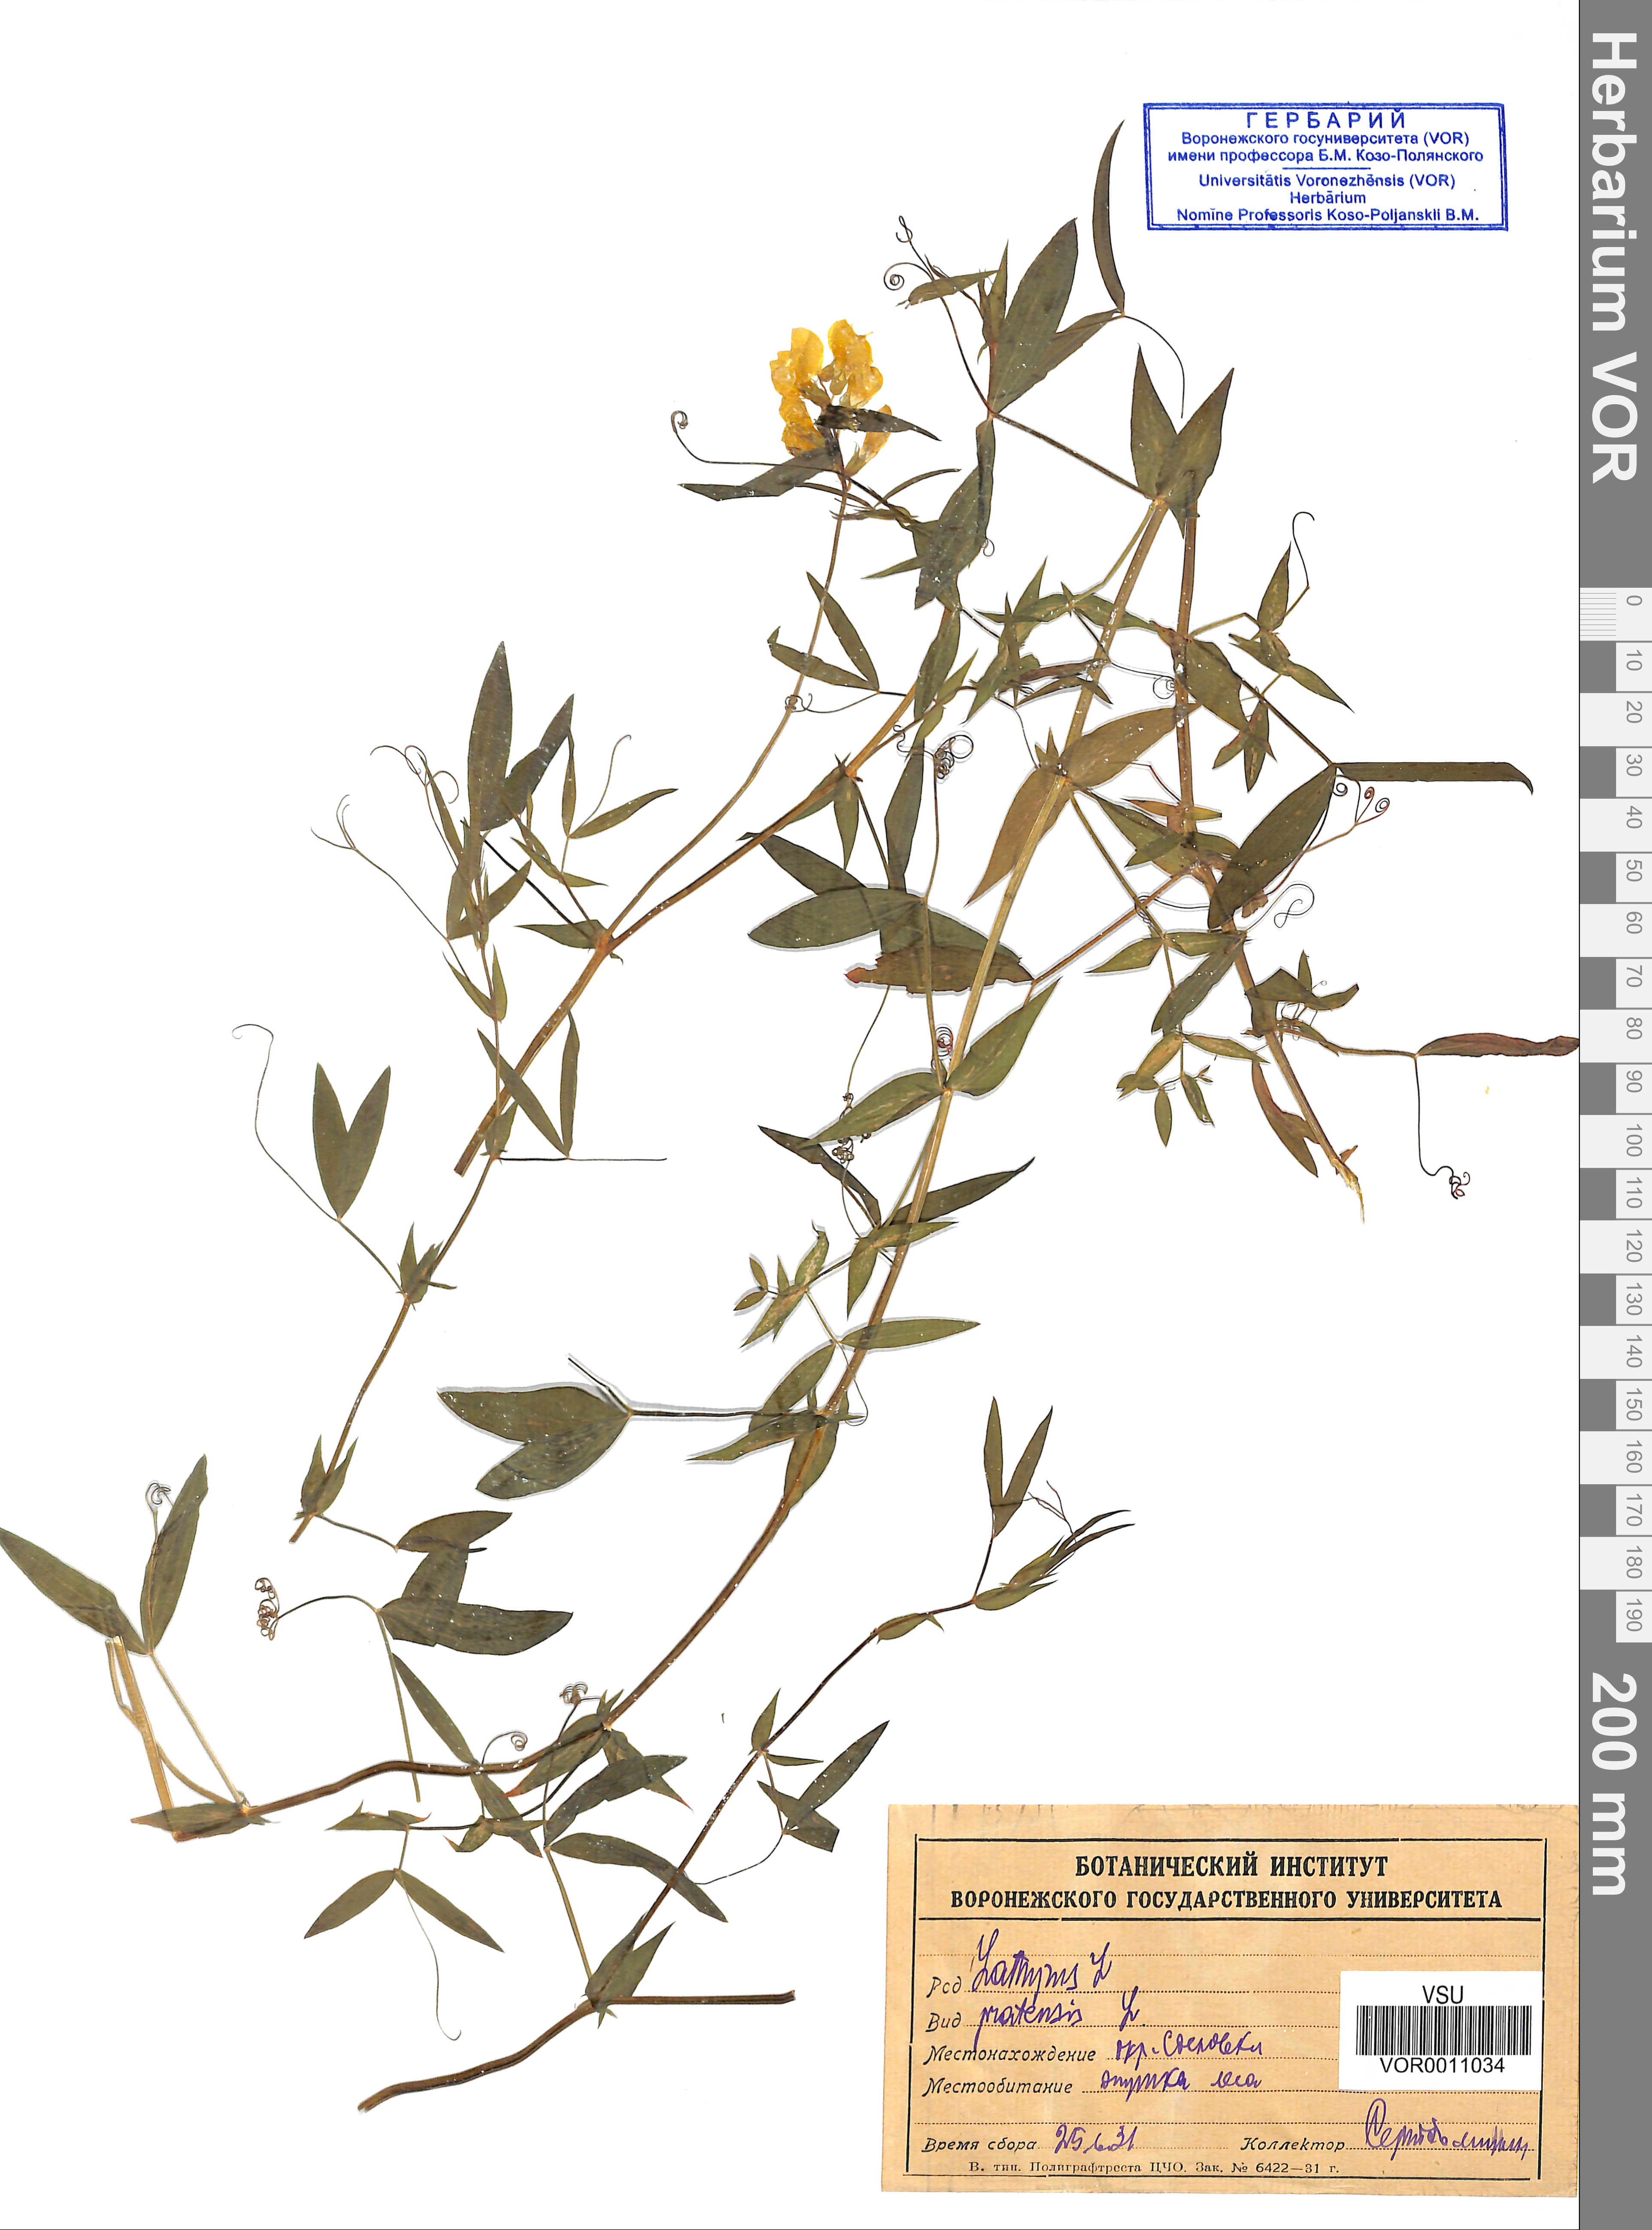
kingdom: Plantae
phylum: Tracheophyta
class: Magnoliopsida
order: Fabales
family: Fabaceae
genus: Lathyrus
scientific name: Lathyrus pratensis
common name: Meadow vetchling
